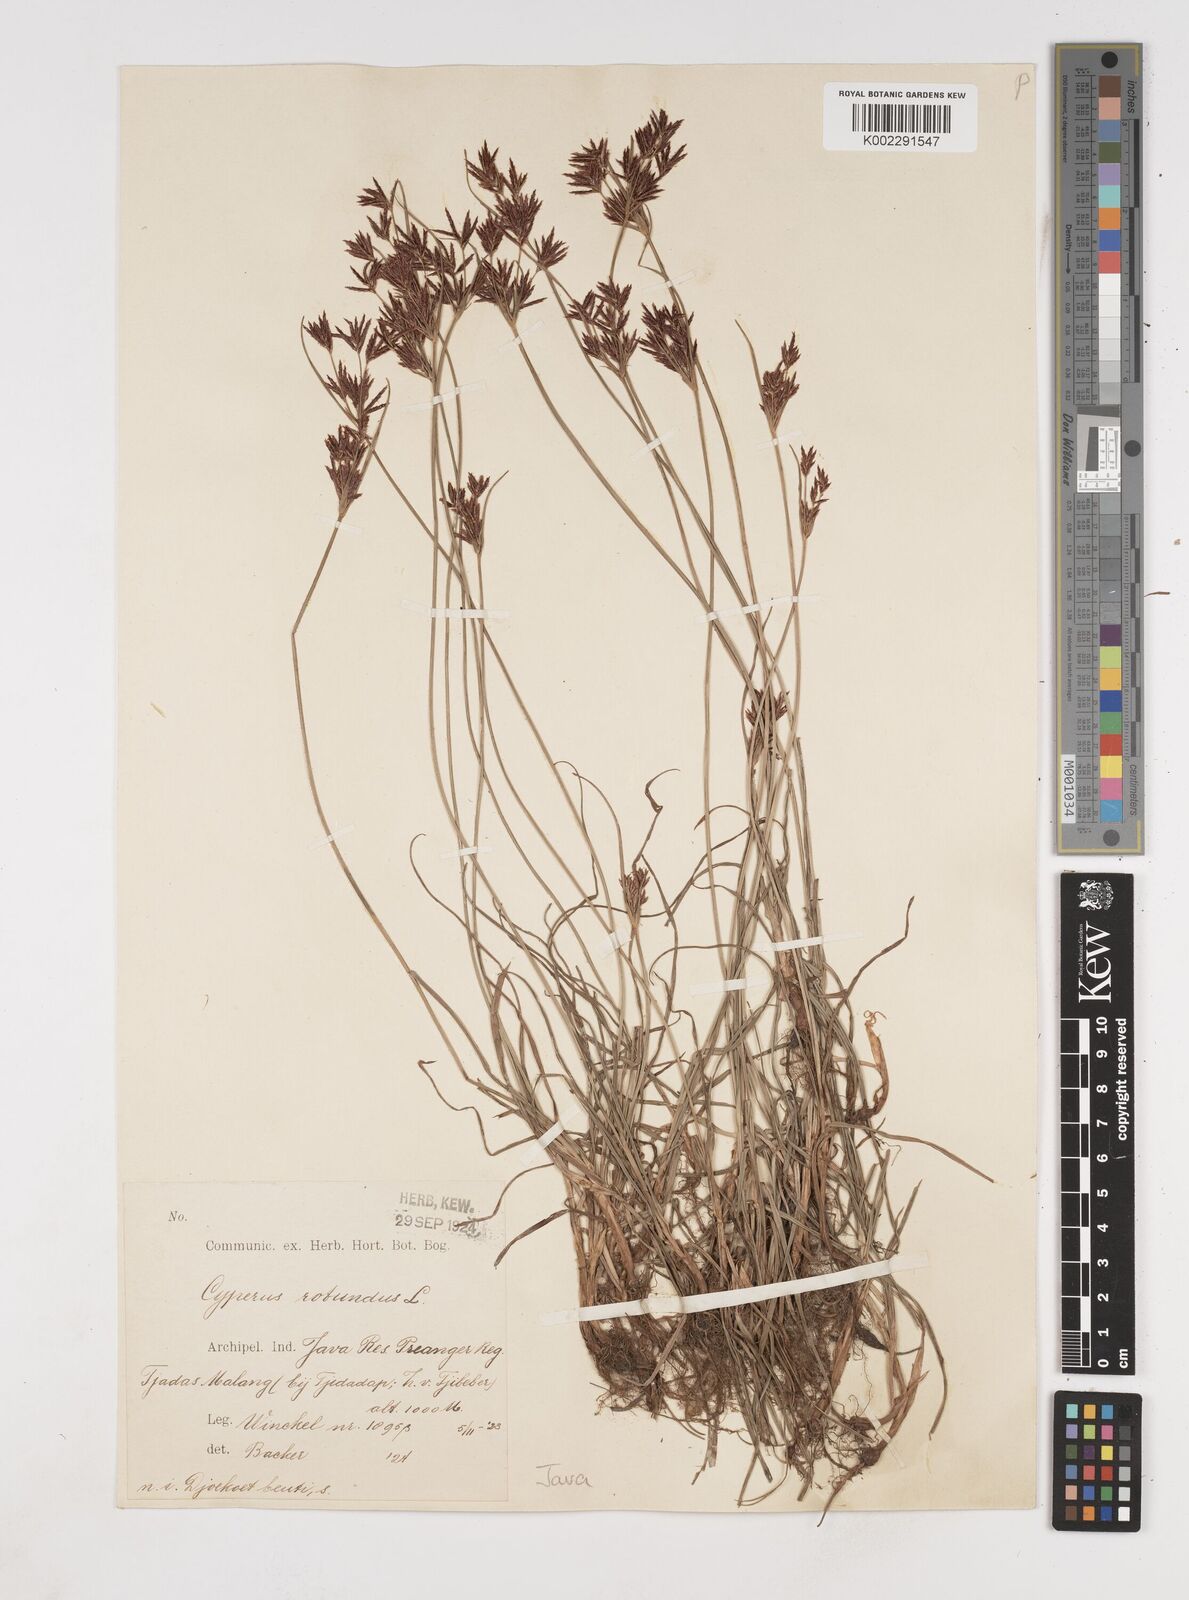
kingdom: Plantae
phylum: Tracheophyta
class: Liliopsida
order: Poales
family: Cyperaceae
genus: Cyperus
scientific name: Cyperus rotundus
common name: Nutgrass
